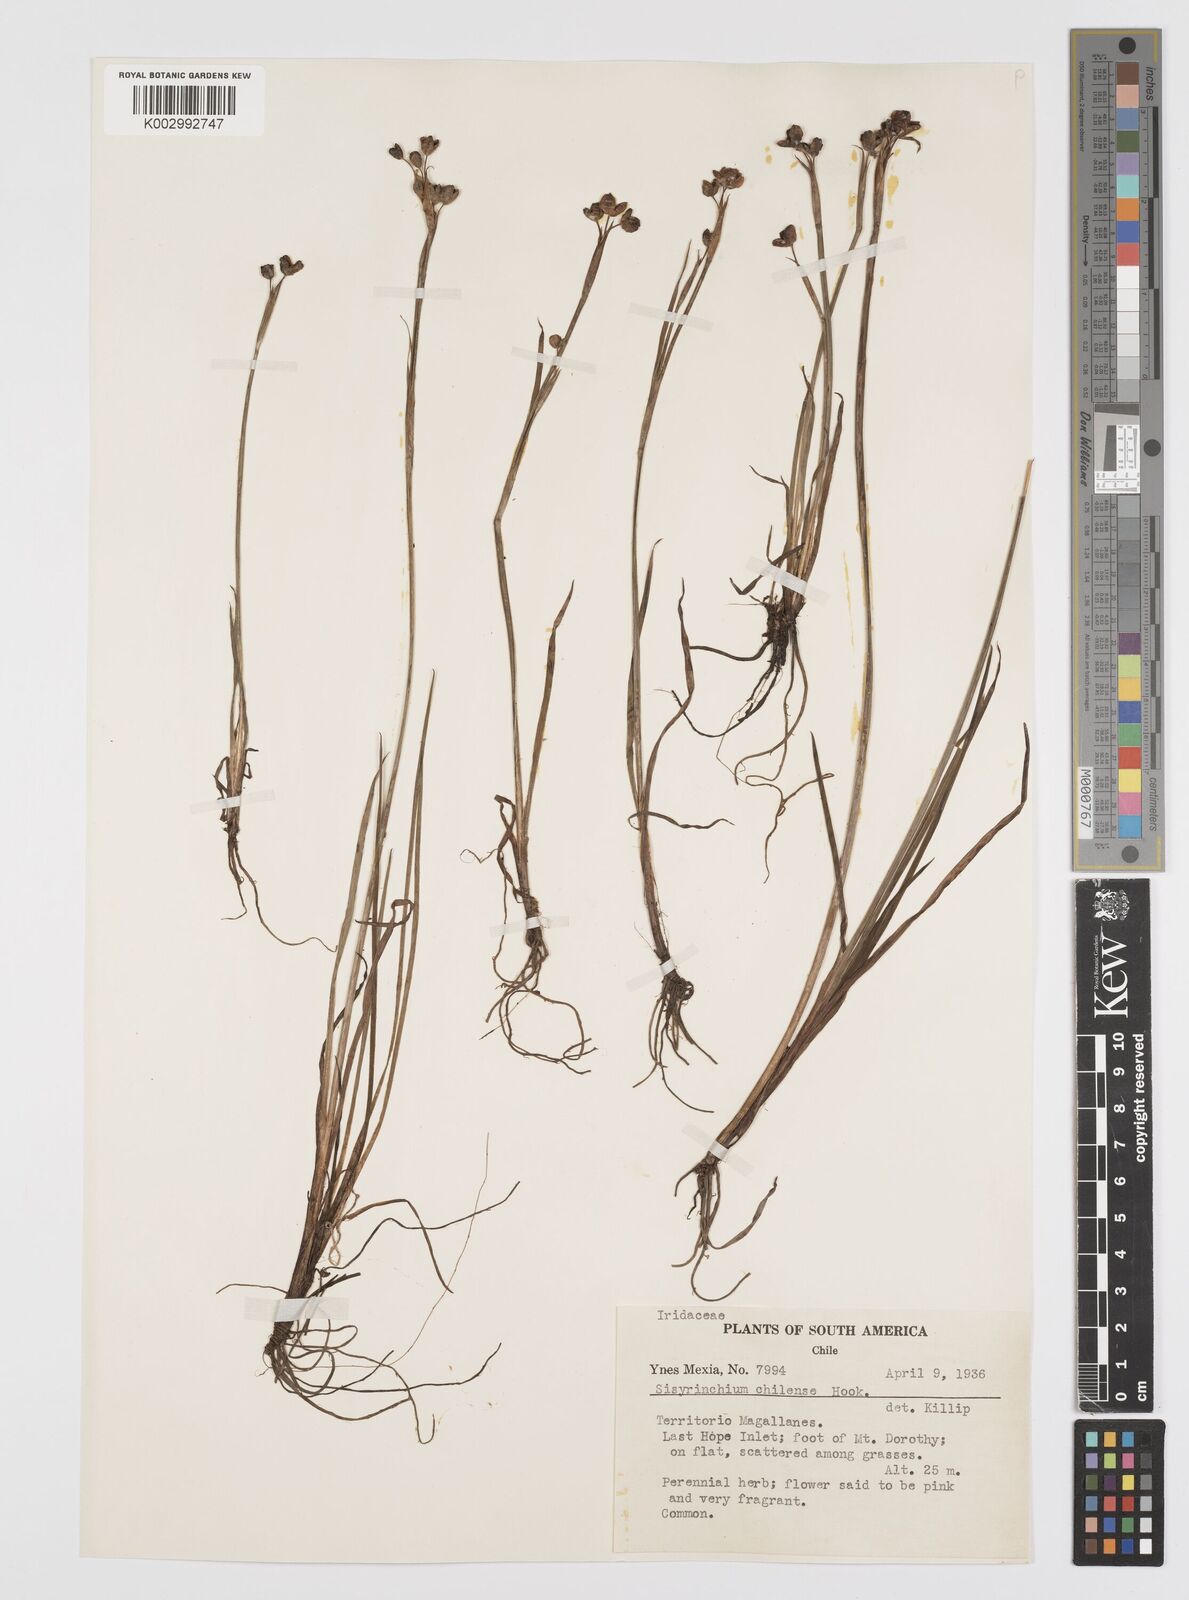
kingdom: Plantae
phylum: Tracheophyta
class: Liliopsida
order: Asparagales
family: Iridaceae
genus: Sisyrinchium
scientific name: Sisyrinchium chilense
